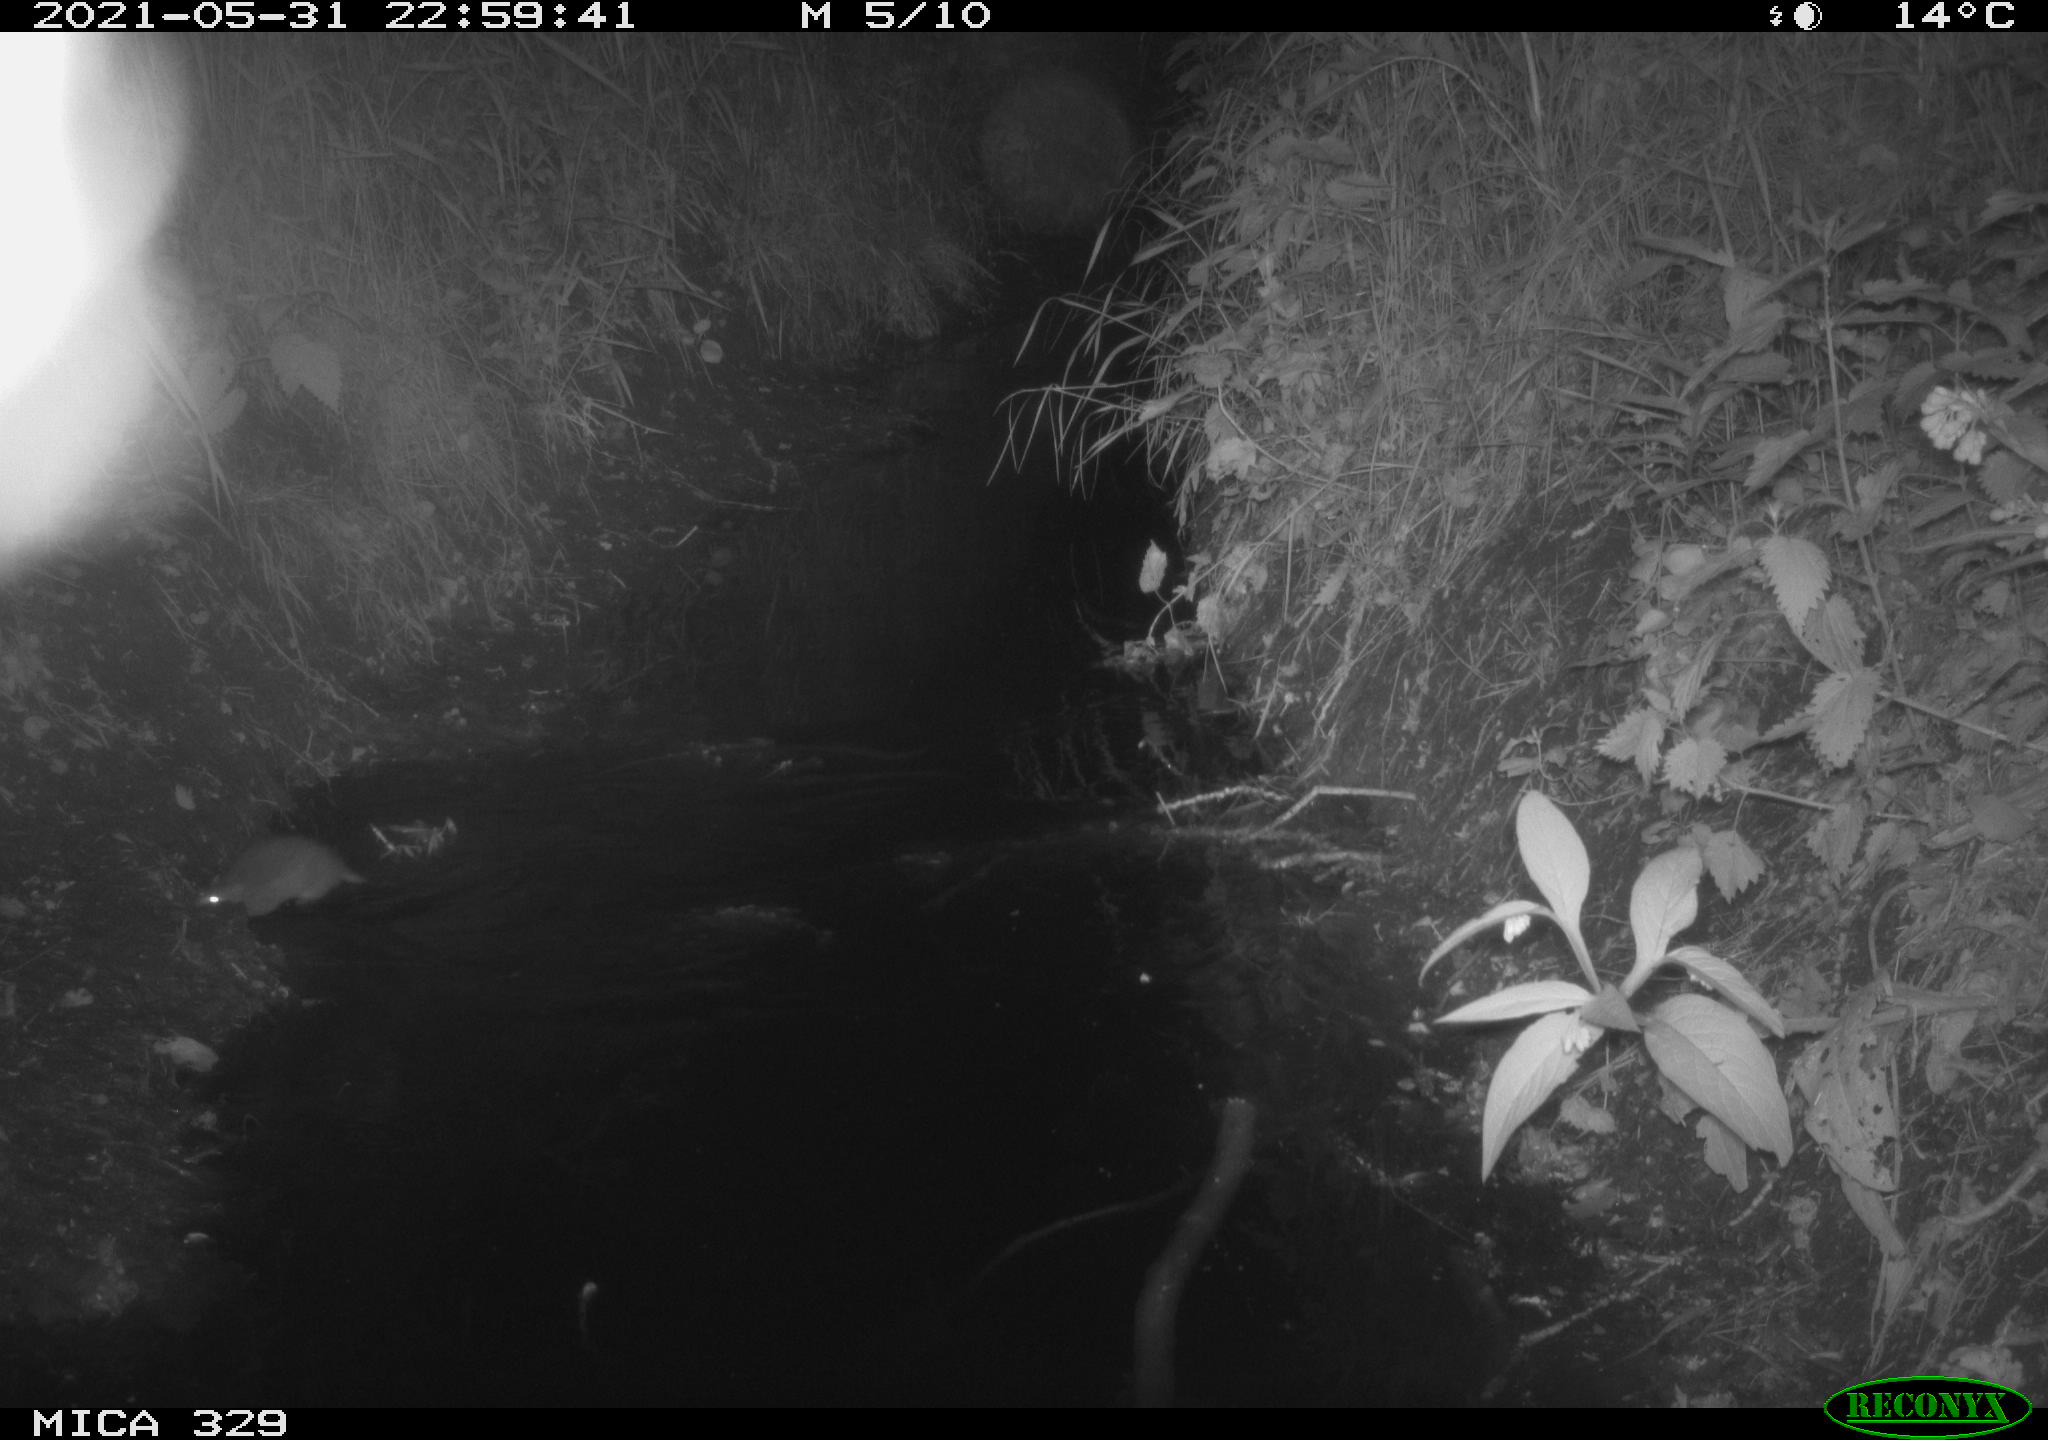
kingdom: Animalia
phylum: Chordata
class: Mammalia
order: Rodentia
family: Muridae
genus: Rattus
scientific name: Rattus norvegicus
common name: Brown rat
